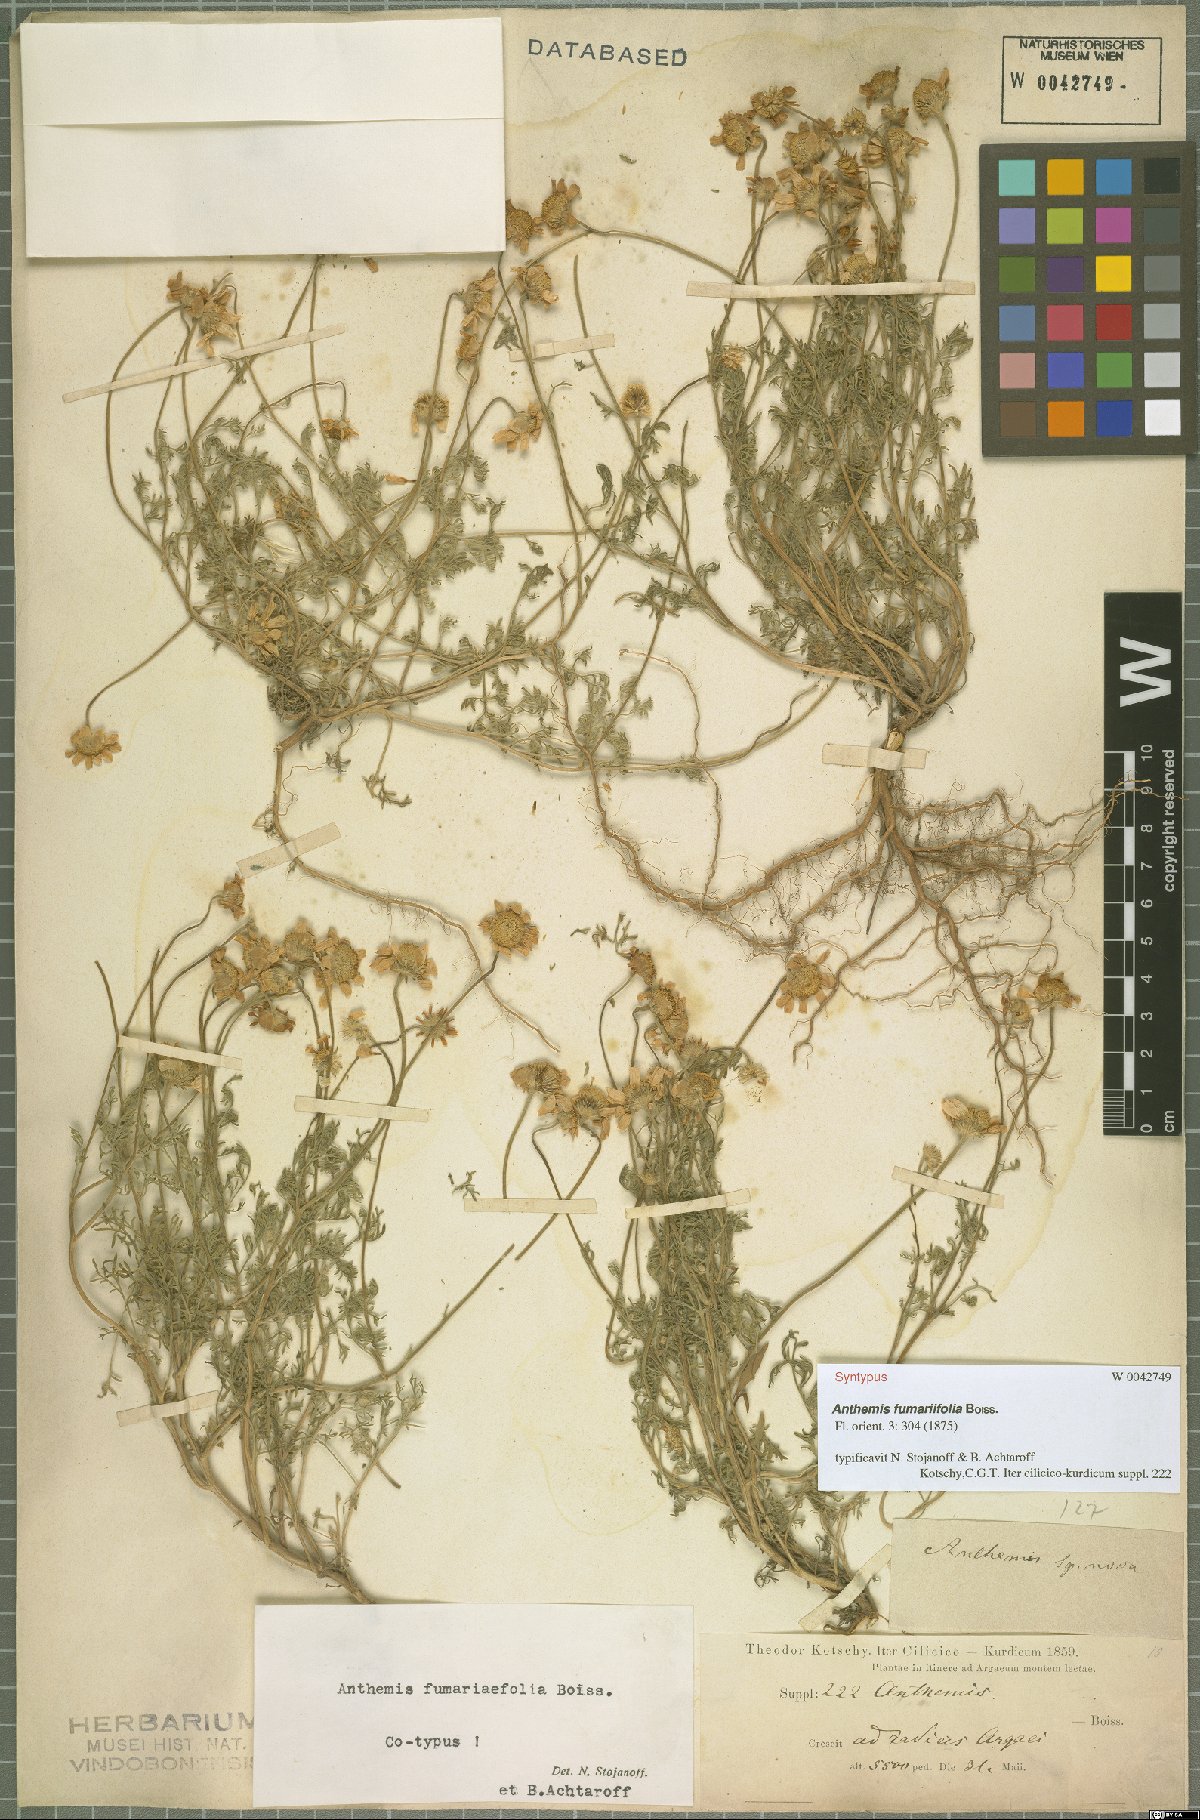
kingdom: Plantae
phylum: Tracheophyta
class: Magnoliopsida
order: Asterales
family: Asteraceae
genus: Anthemis
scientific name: Anthemis fumariifolia
